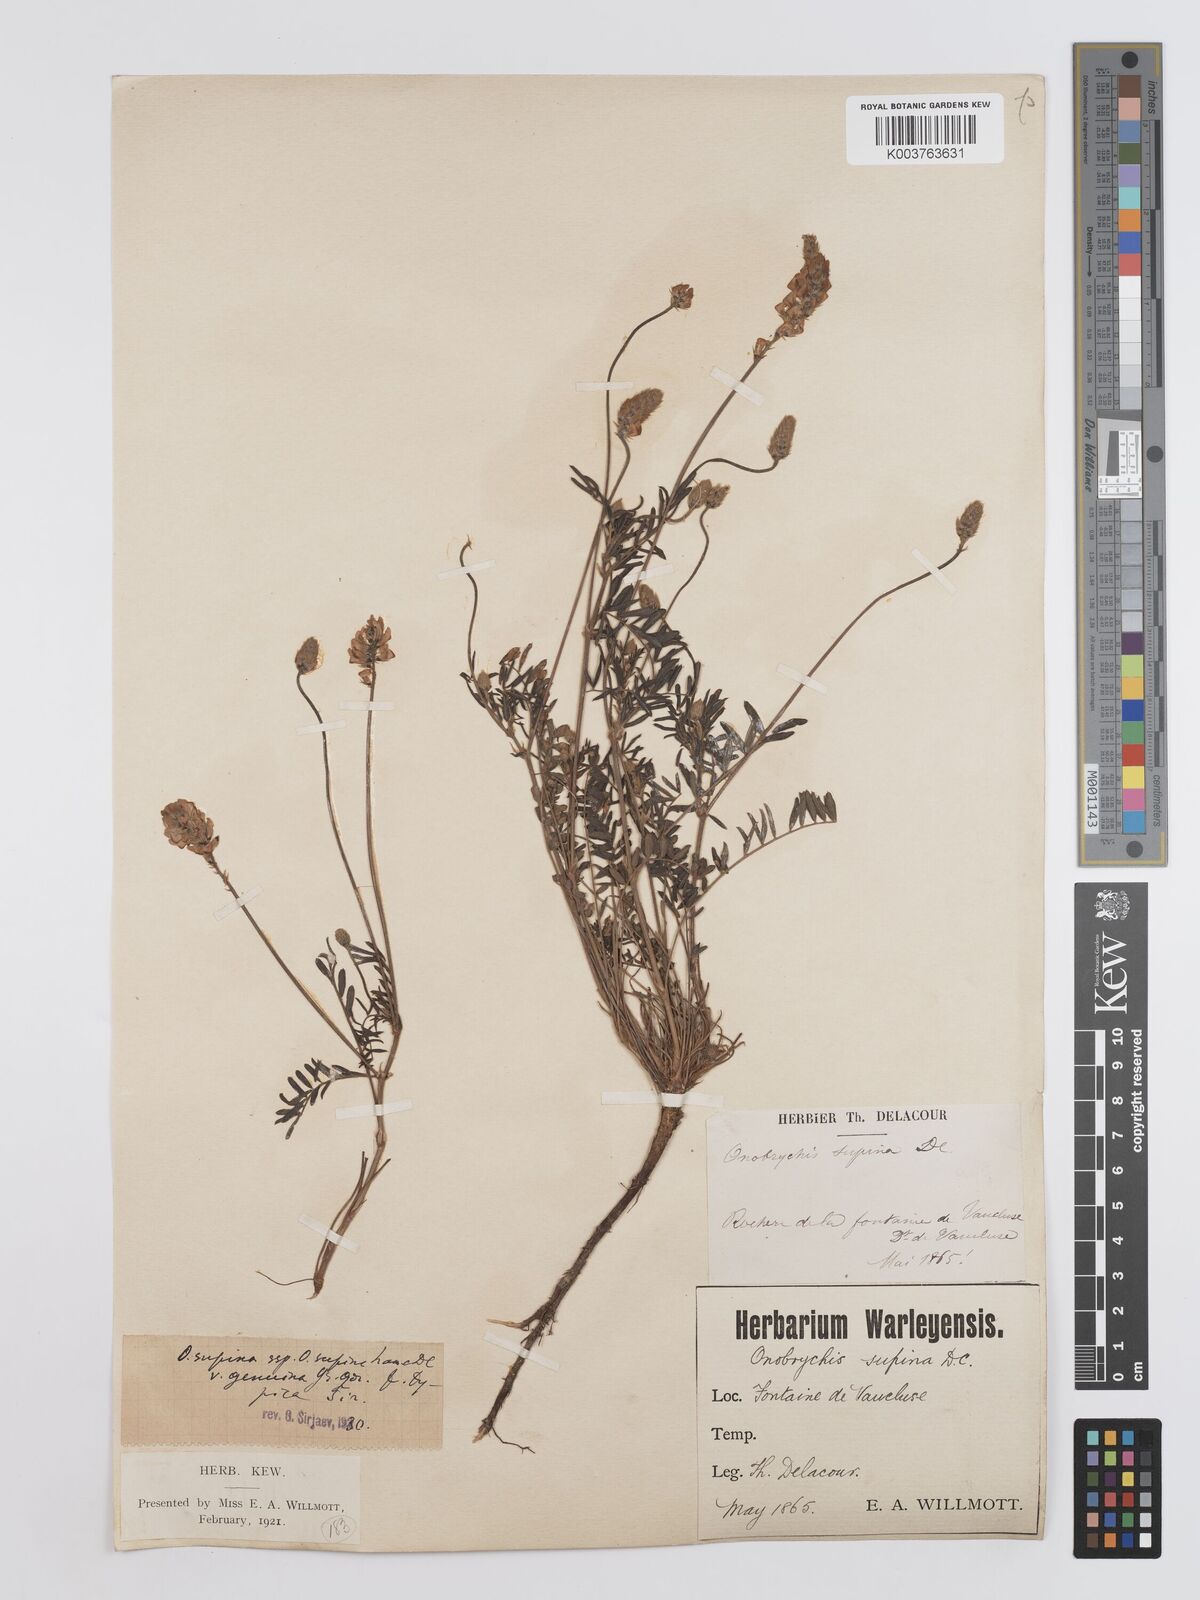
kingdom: Plantae
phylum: Tracheophyta
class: Magnoliopsida
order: Fabales
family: Fabaceae
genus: Onobrychis
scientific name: Onobrychis supina
